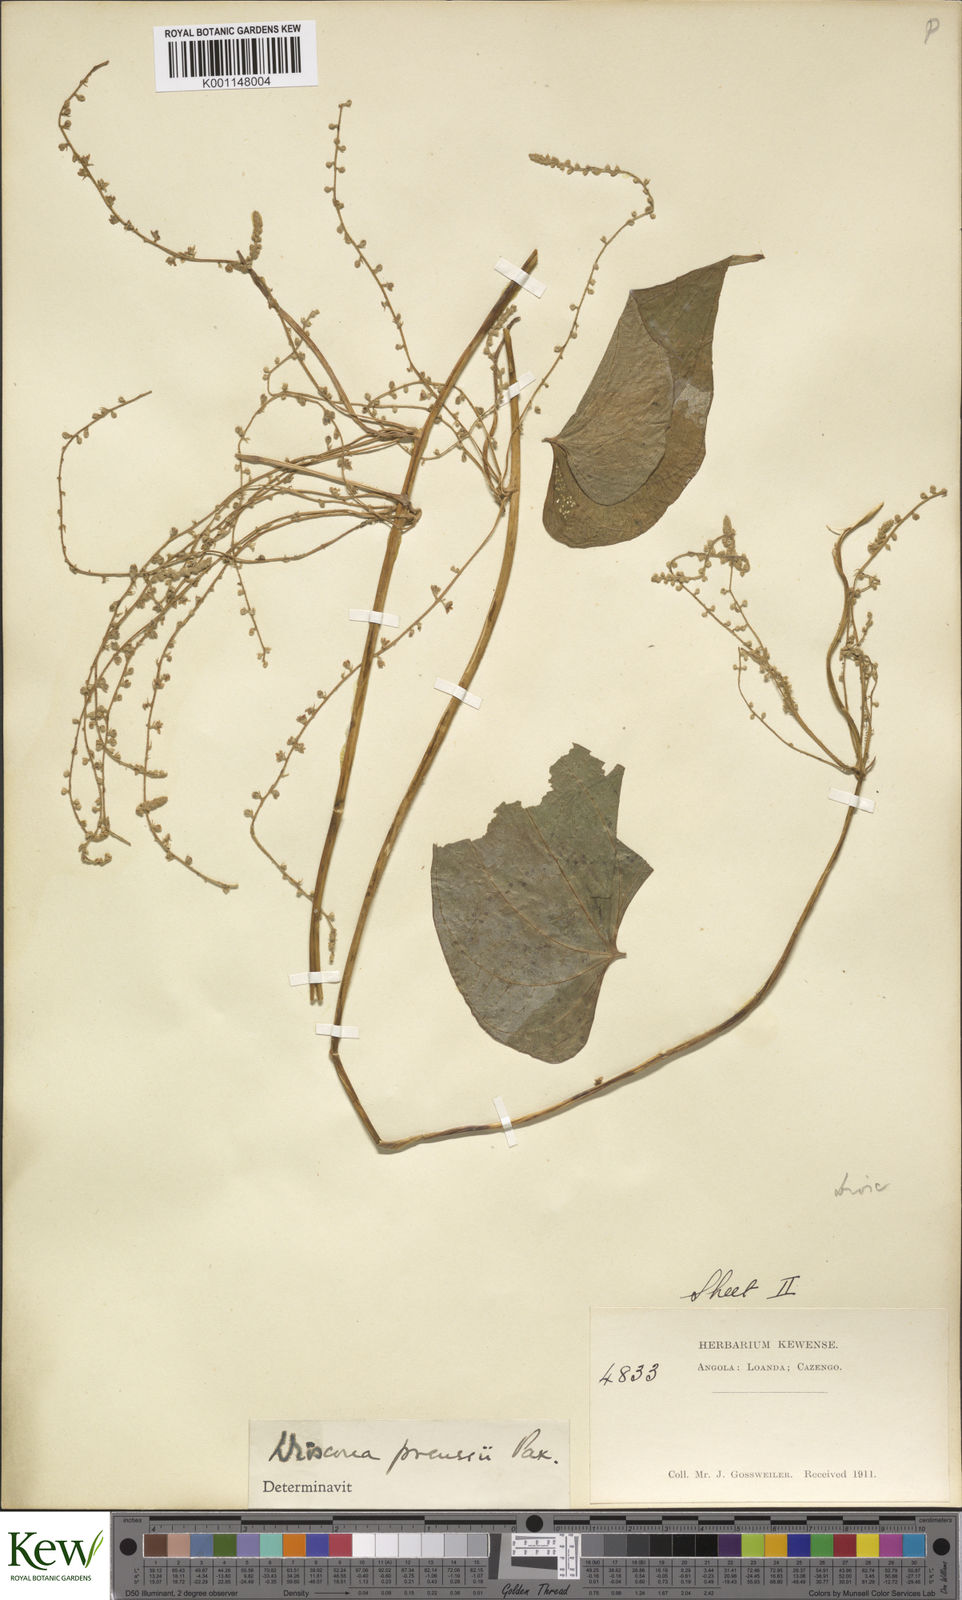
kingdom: Plantae
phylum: Tracheophyta
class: Liliopsida
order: Dioscoreales
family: Dioscoreaceae
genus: Dioscorea
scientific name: Dioscorea preussii
